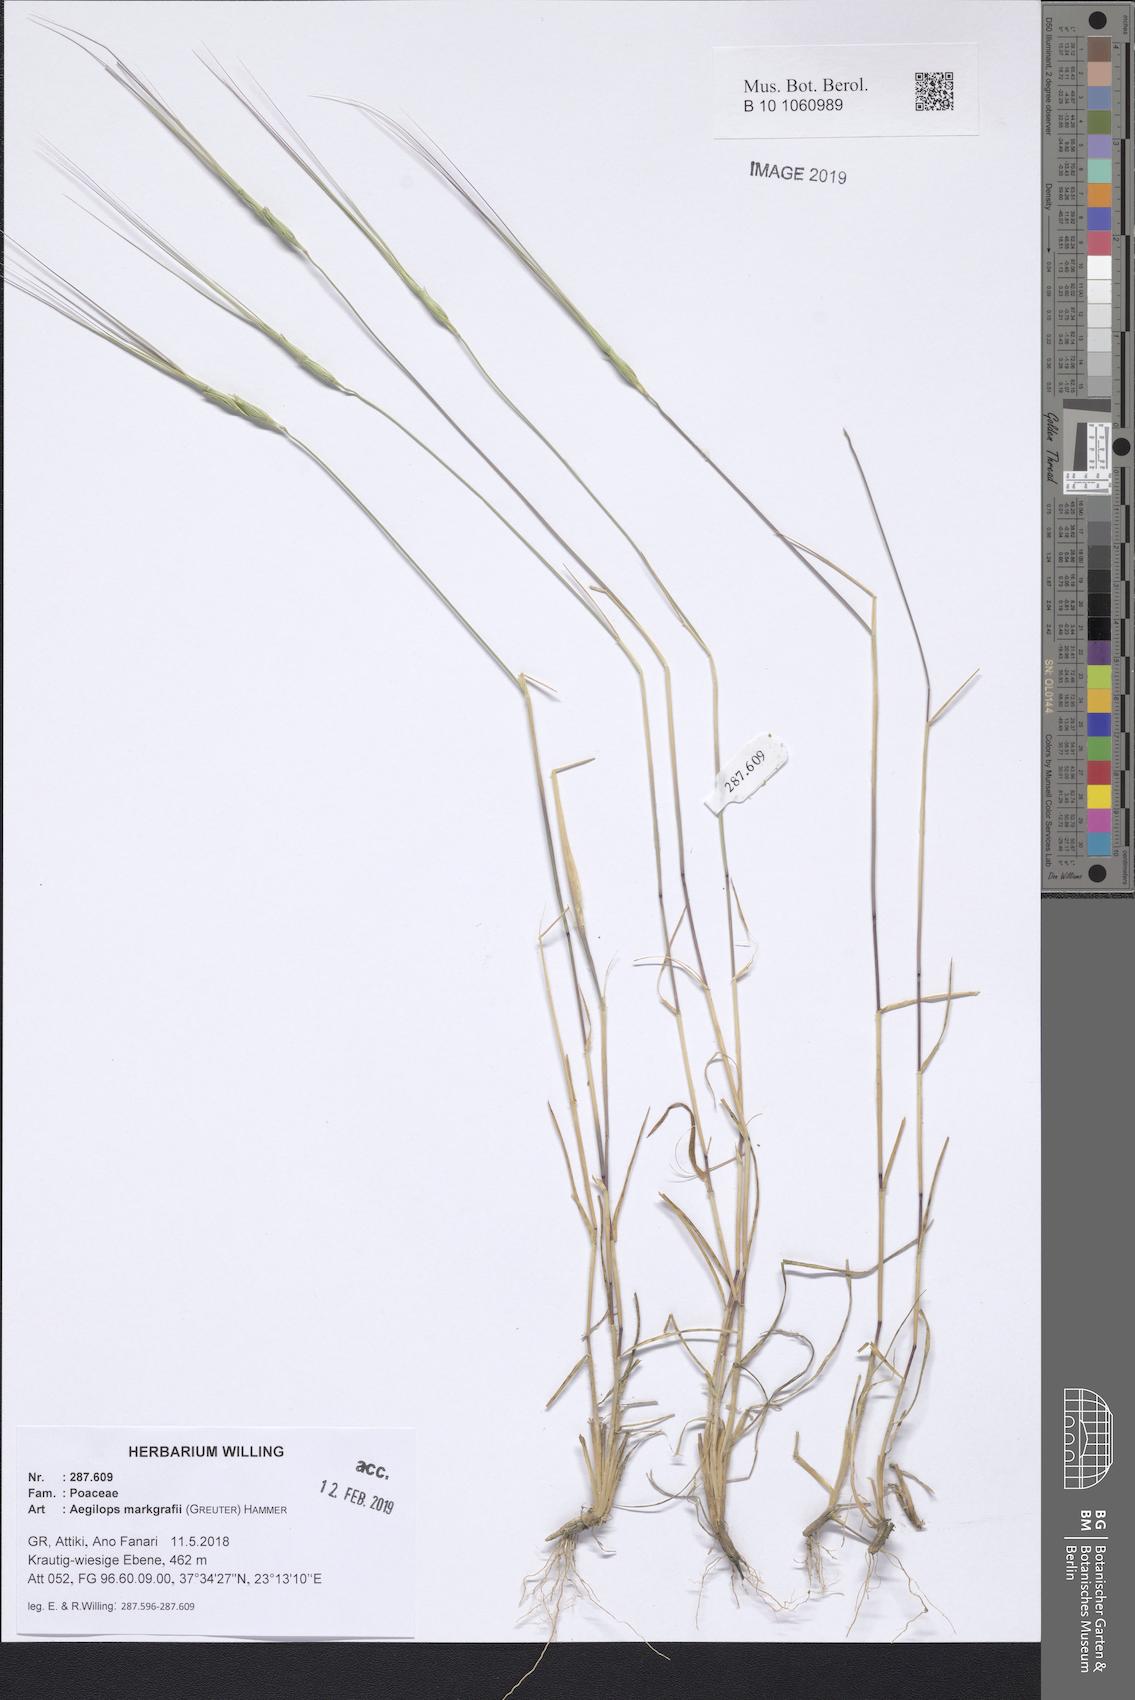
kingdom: Plantae
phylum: Tracheophyta
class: Liliopsida
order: Poales
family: Poaceae
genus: Aegilops
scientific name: Aegilops caudata
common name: Cretan hard-grass
